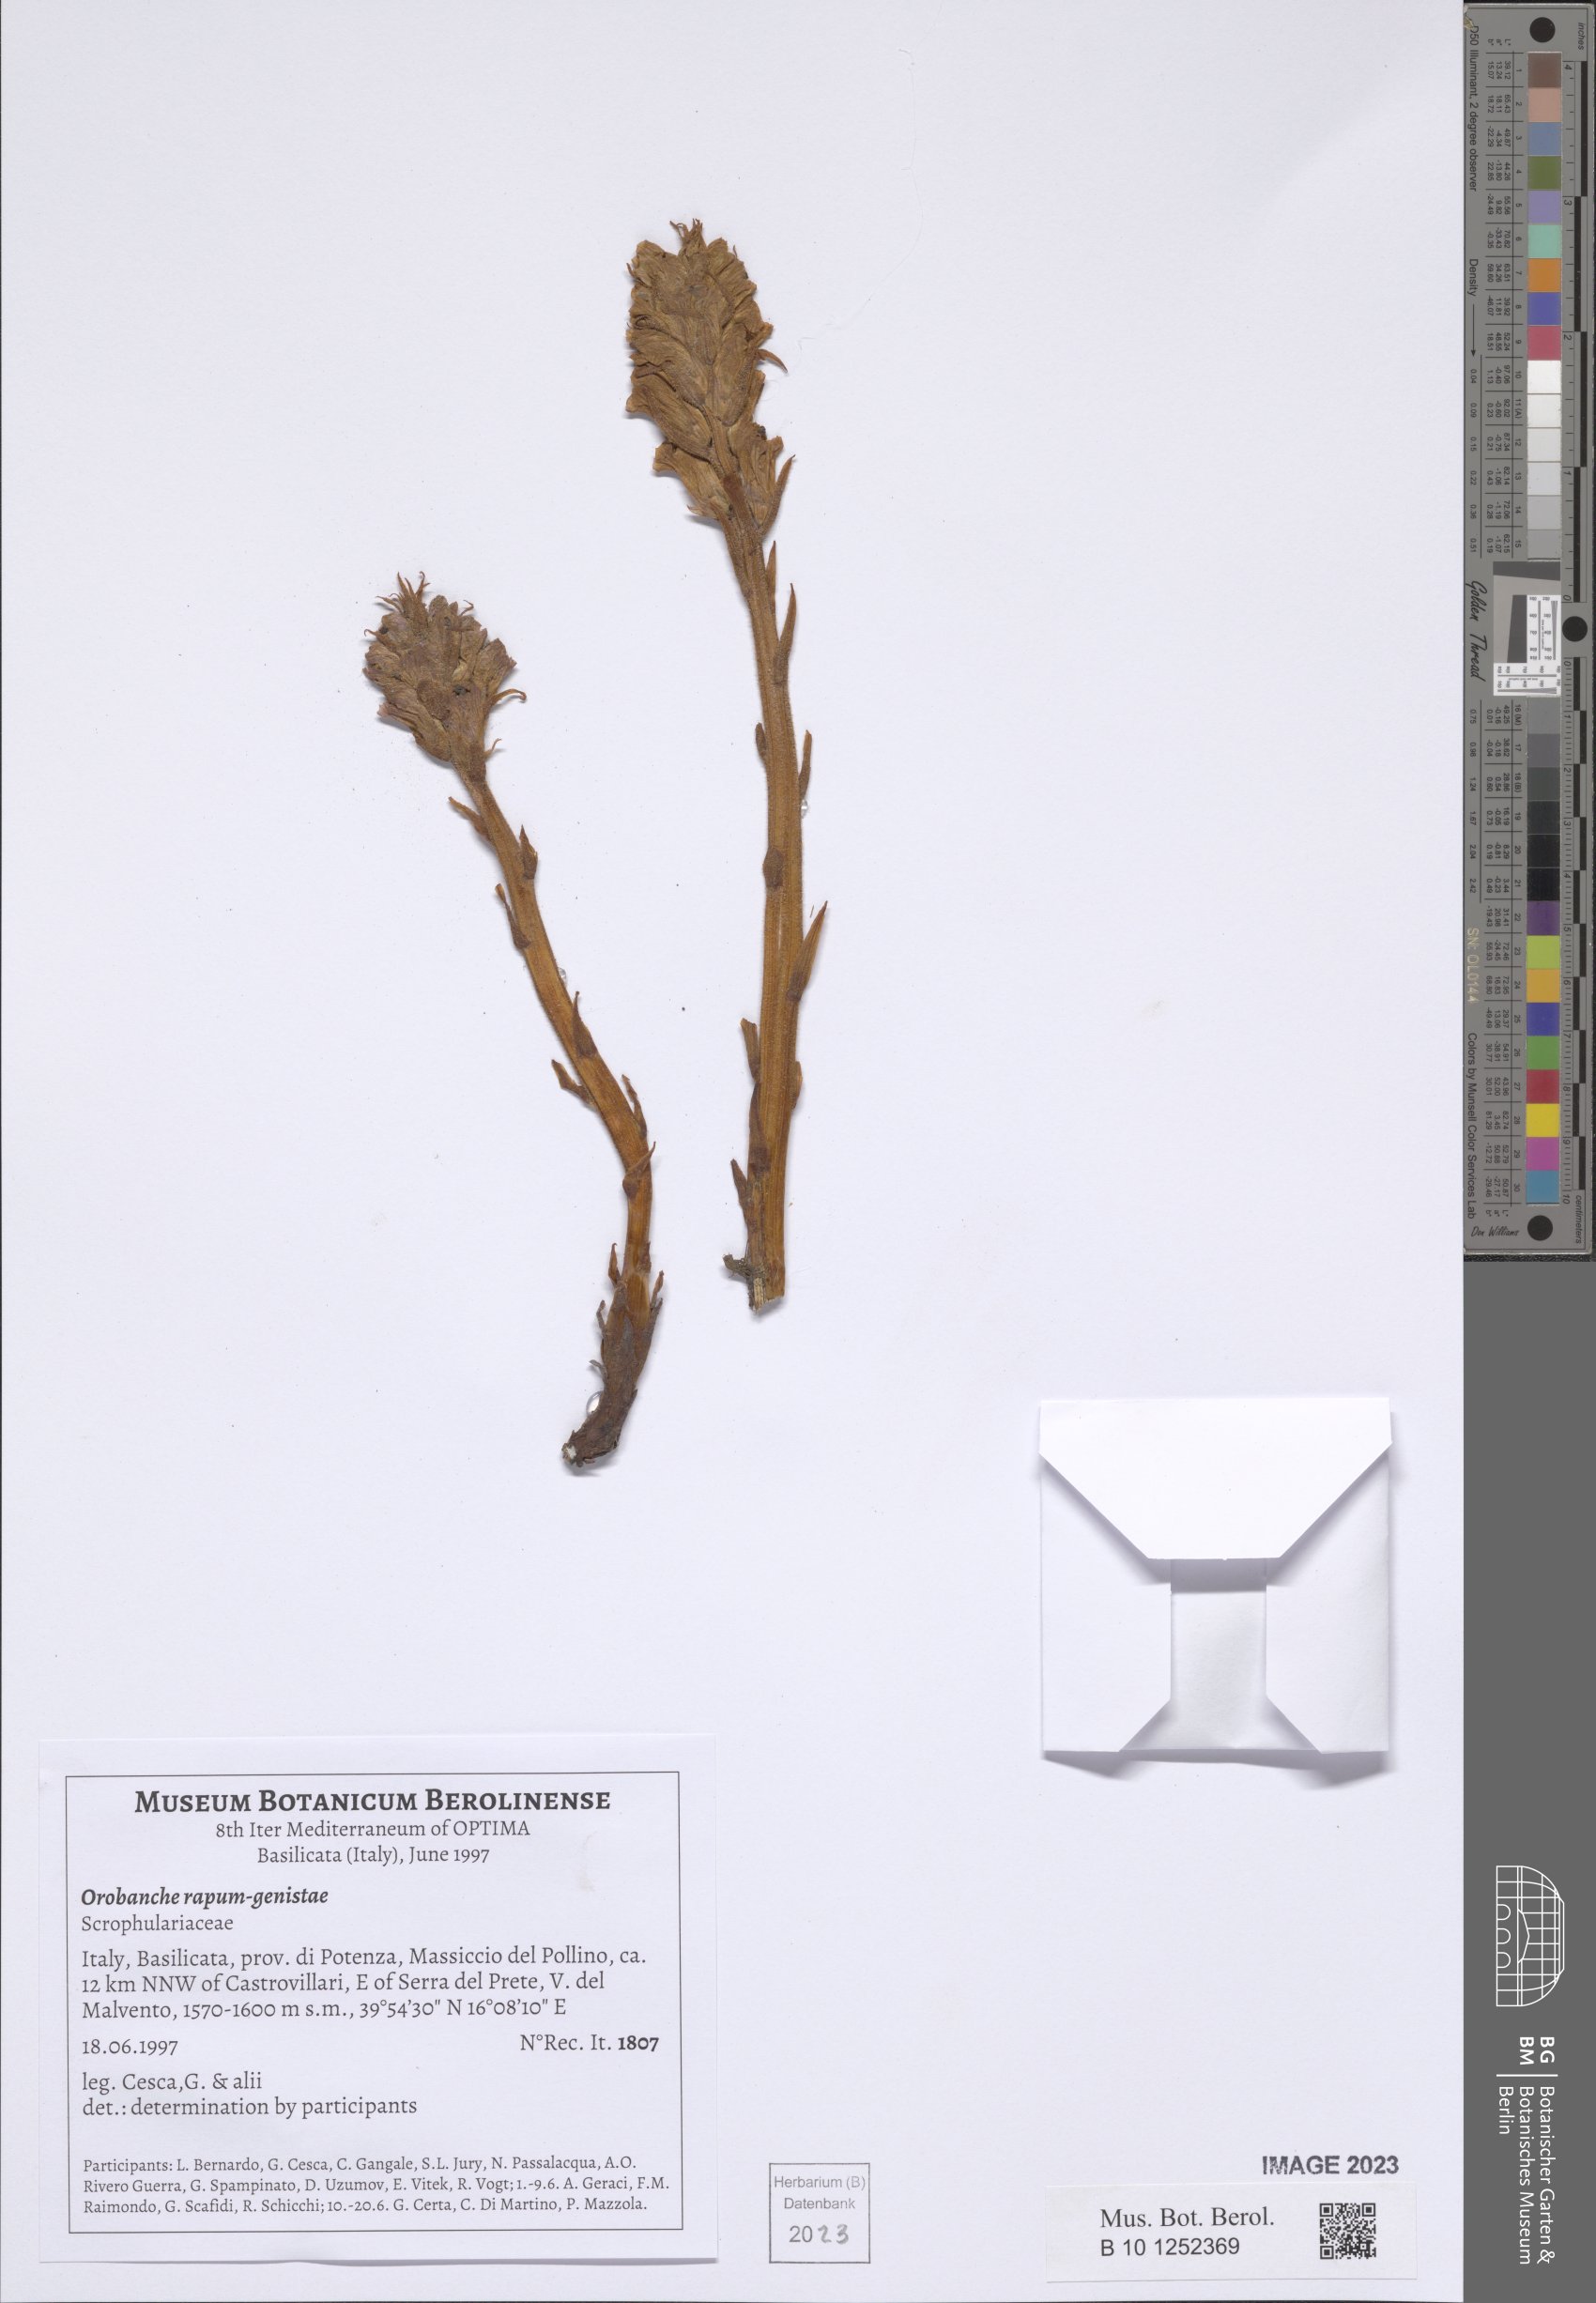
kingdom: Plantae
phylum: Tracheophyta
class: Magnoliopsida
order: Lamiales
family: Orobanchaceae
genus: Orobanche
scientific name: Orobanche rapum-genistae
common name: Greater broomrape
